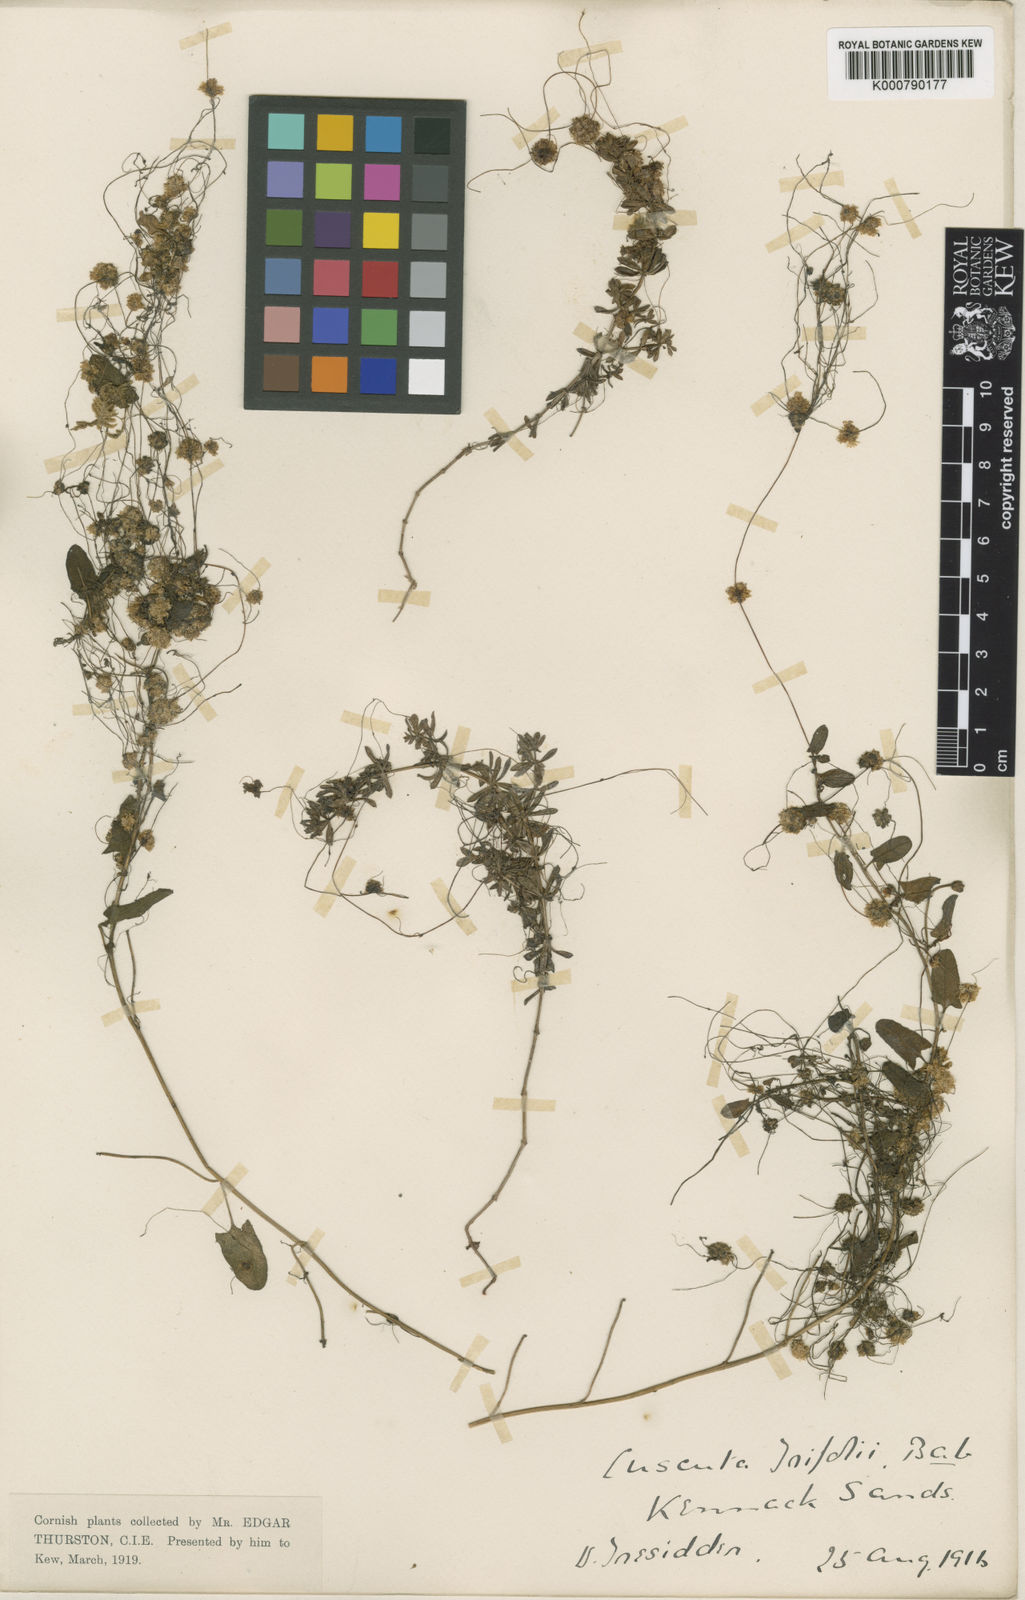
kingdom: Plantae
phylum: Tracheophyta
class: Magnoliopsida
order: Solanales
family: Convolvulaceae
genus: Cuscuta
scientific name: Cuscuta epithymum
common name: Clover dodder
